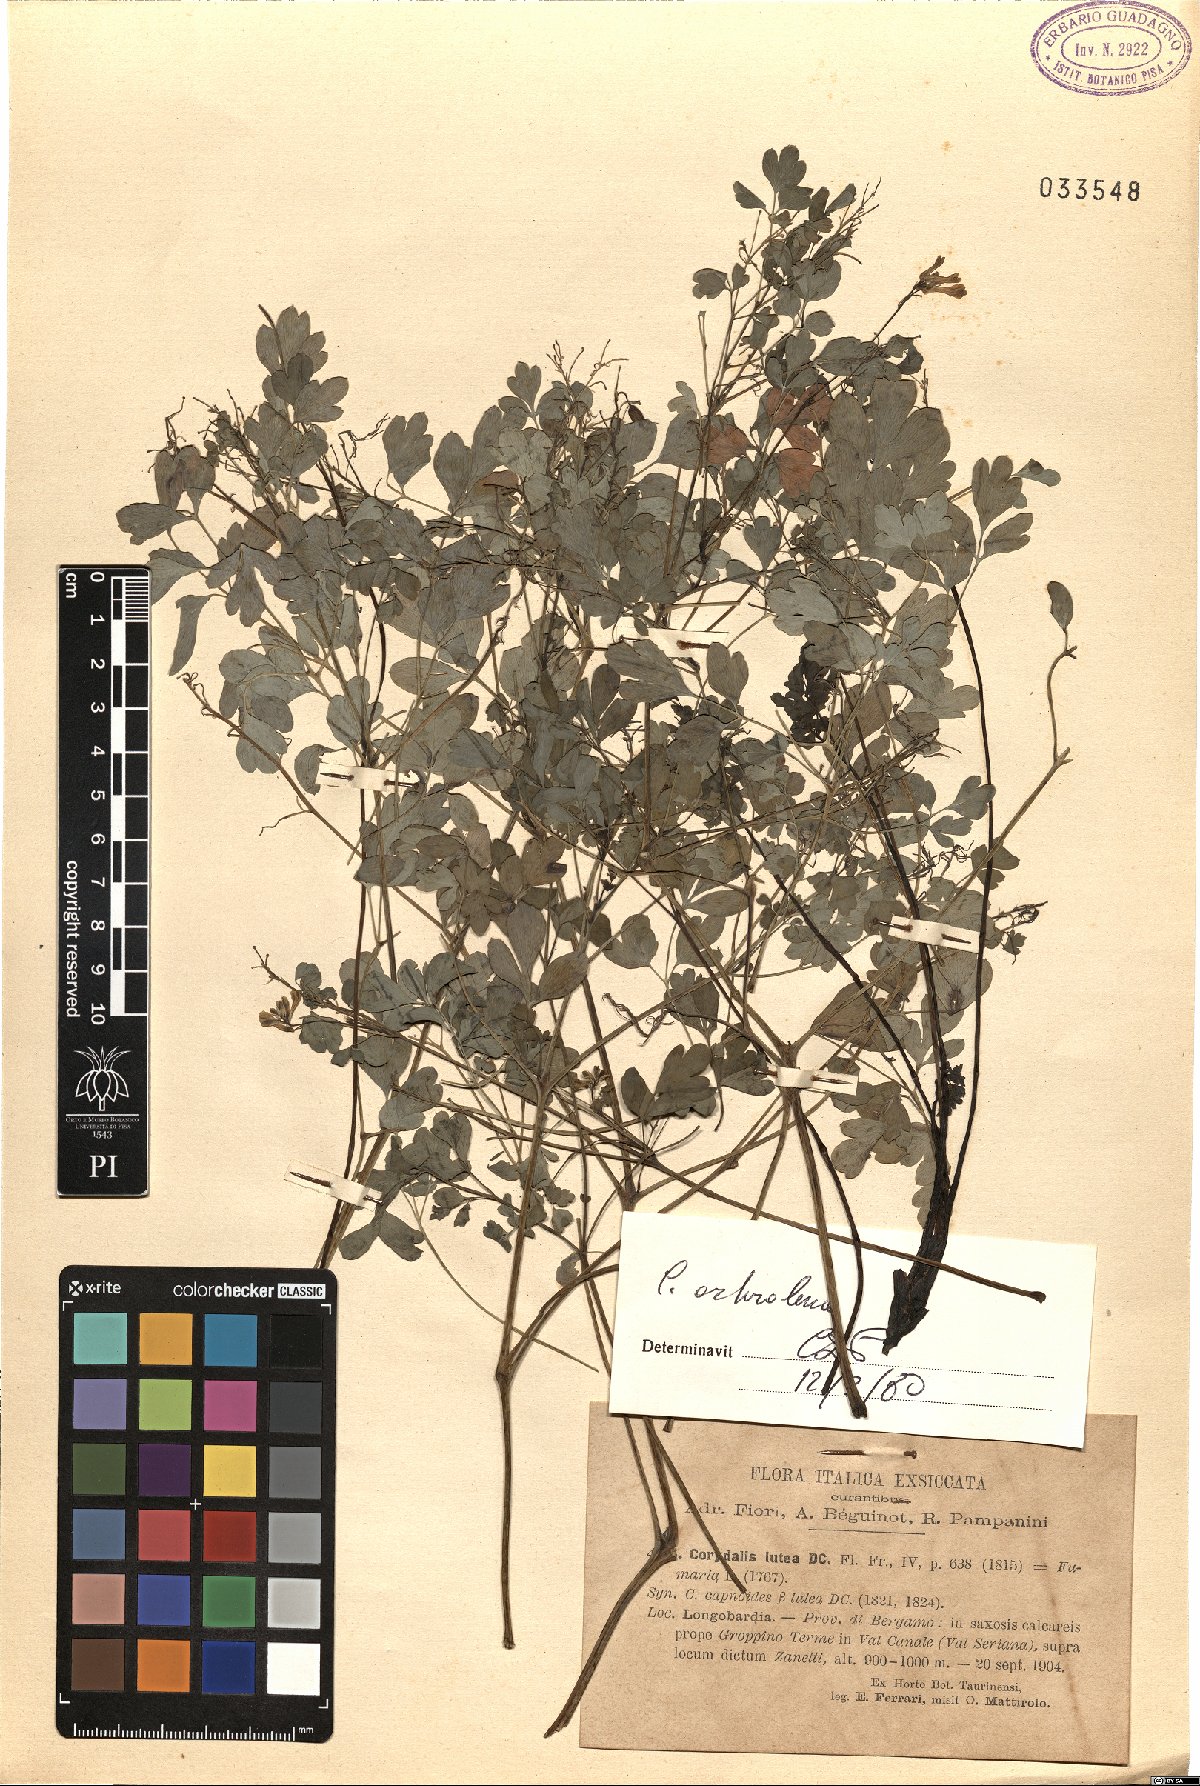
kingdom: Plantae
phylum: Tracheophyta
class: Magnoliopsida
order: Ranunculales
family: Papaveraceae
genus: Pseudofumaria
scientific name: Pseudofumaria alba
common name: Pale corydalis
